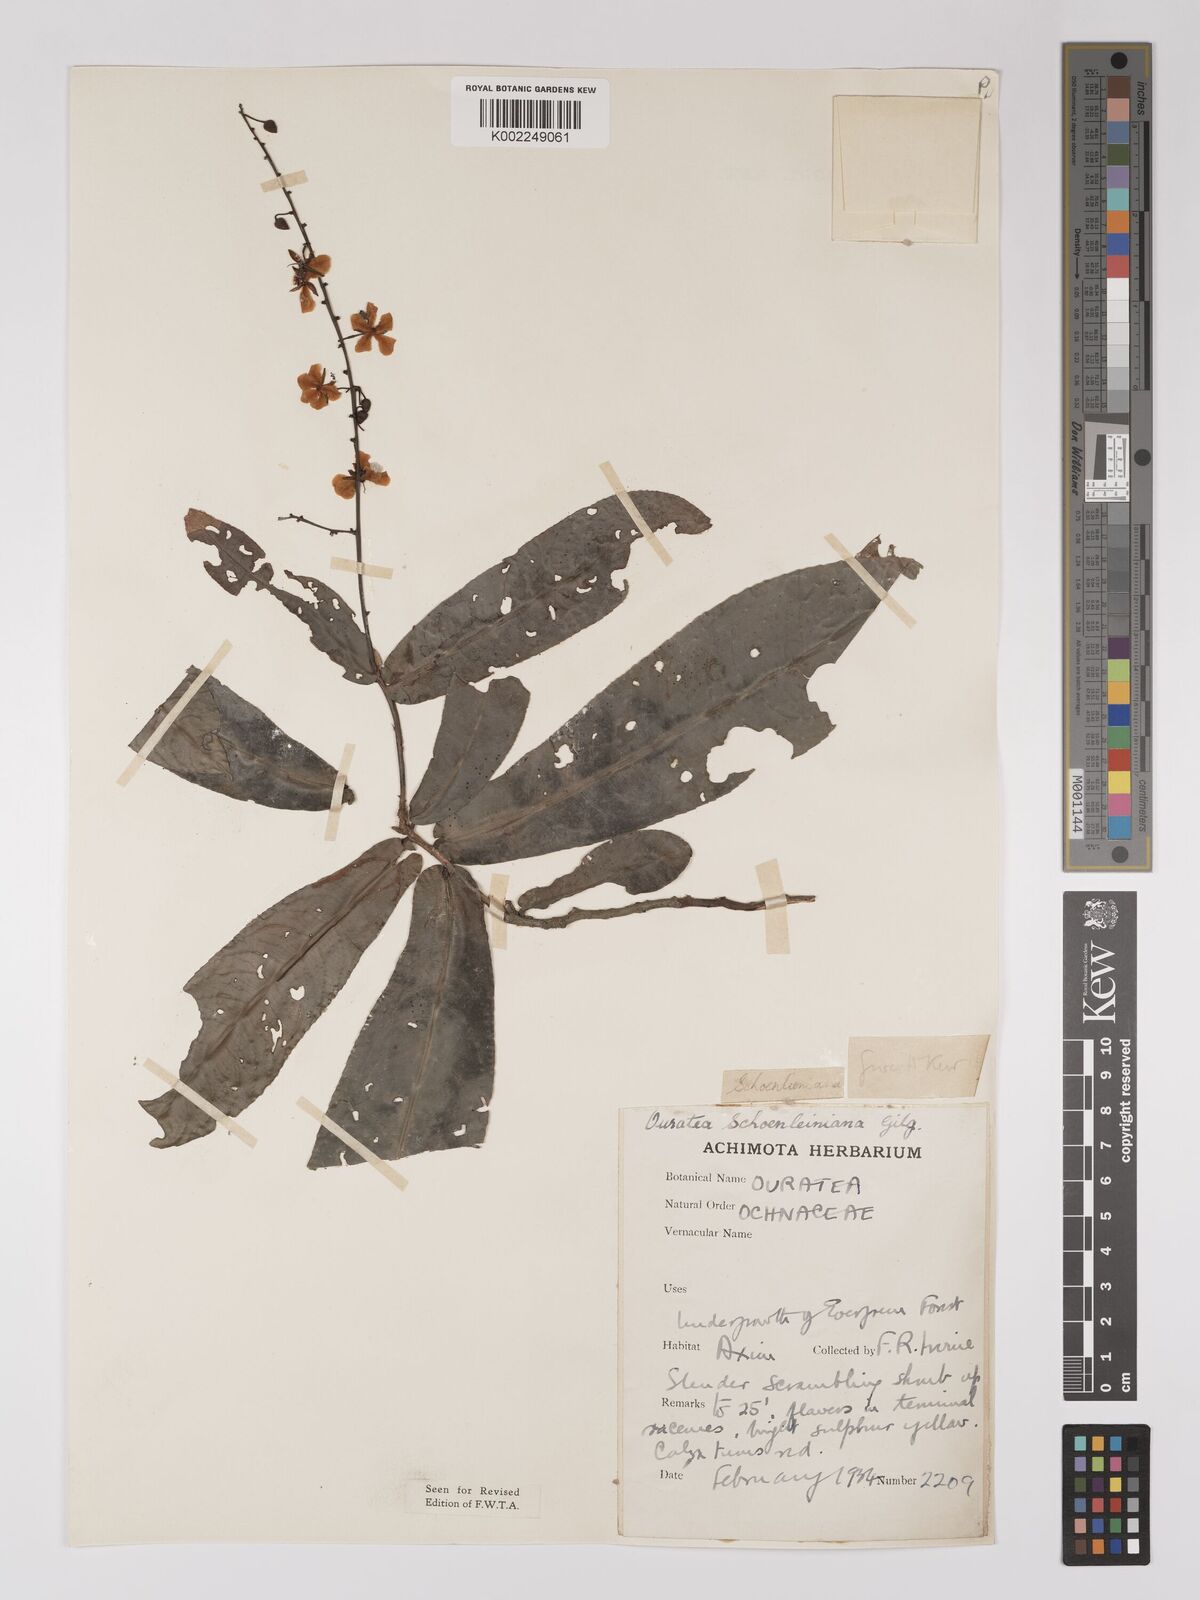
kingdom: Plantae
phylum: Tracheophyta
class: Magnoliopsida
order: Malpighiales
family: Ochnaceae
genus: Campylospermum
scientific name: Campylospermum schoenleinianum
